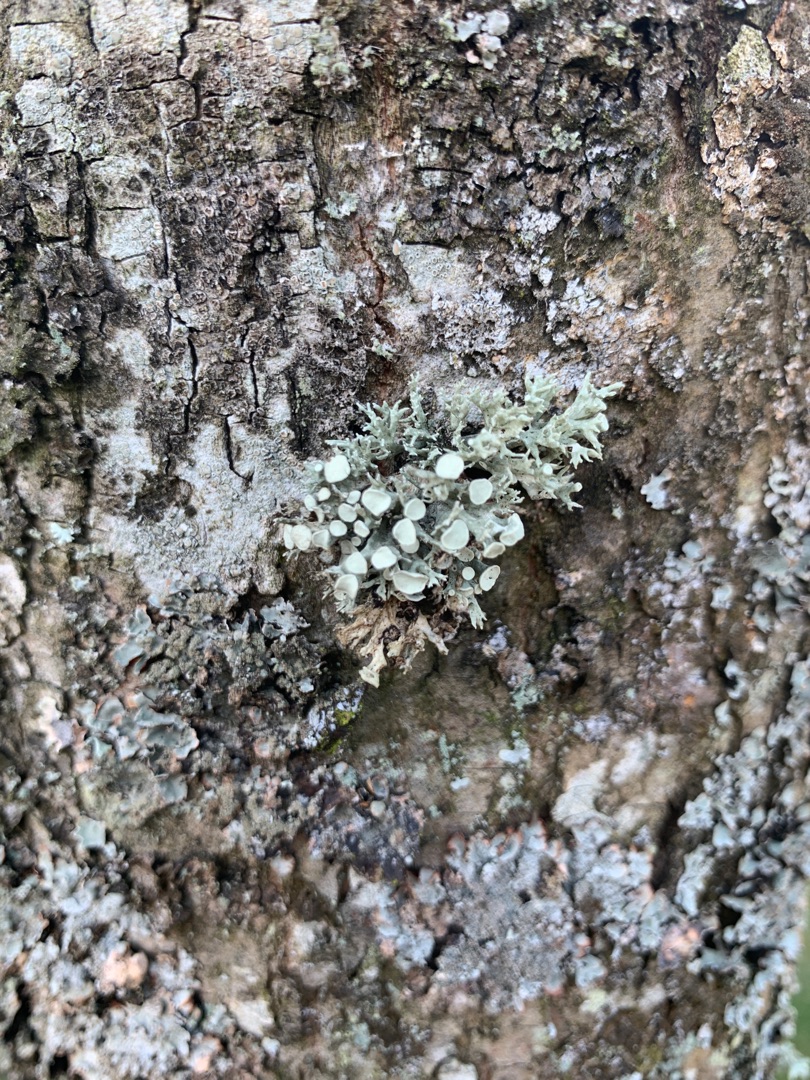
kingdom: Fungi
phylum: Ascomycota
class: Lecanoromycetes
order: Lecanorales
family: Ramalinaceae
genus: Ramalina
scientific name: Ramalina fastigiata
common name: Tue-grenlav
